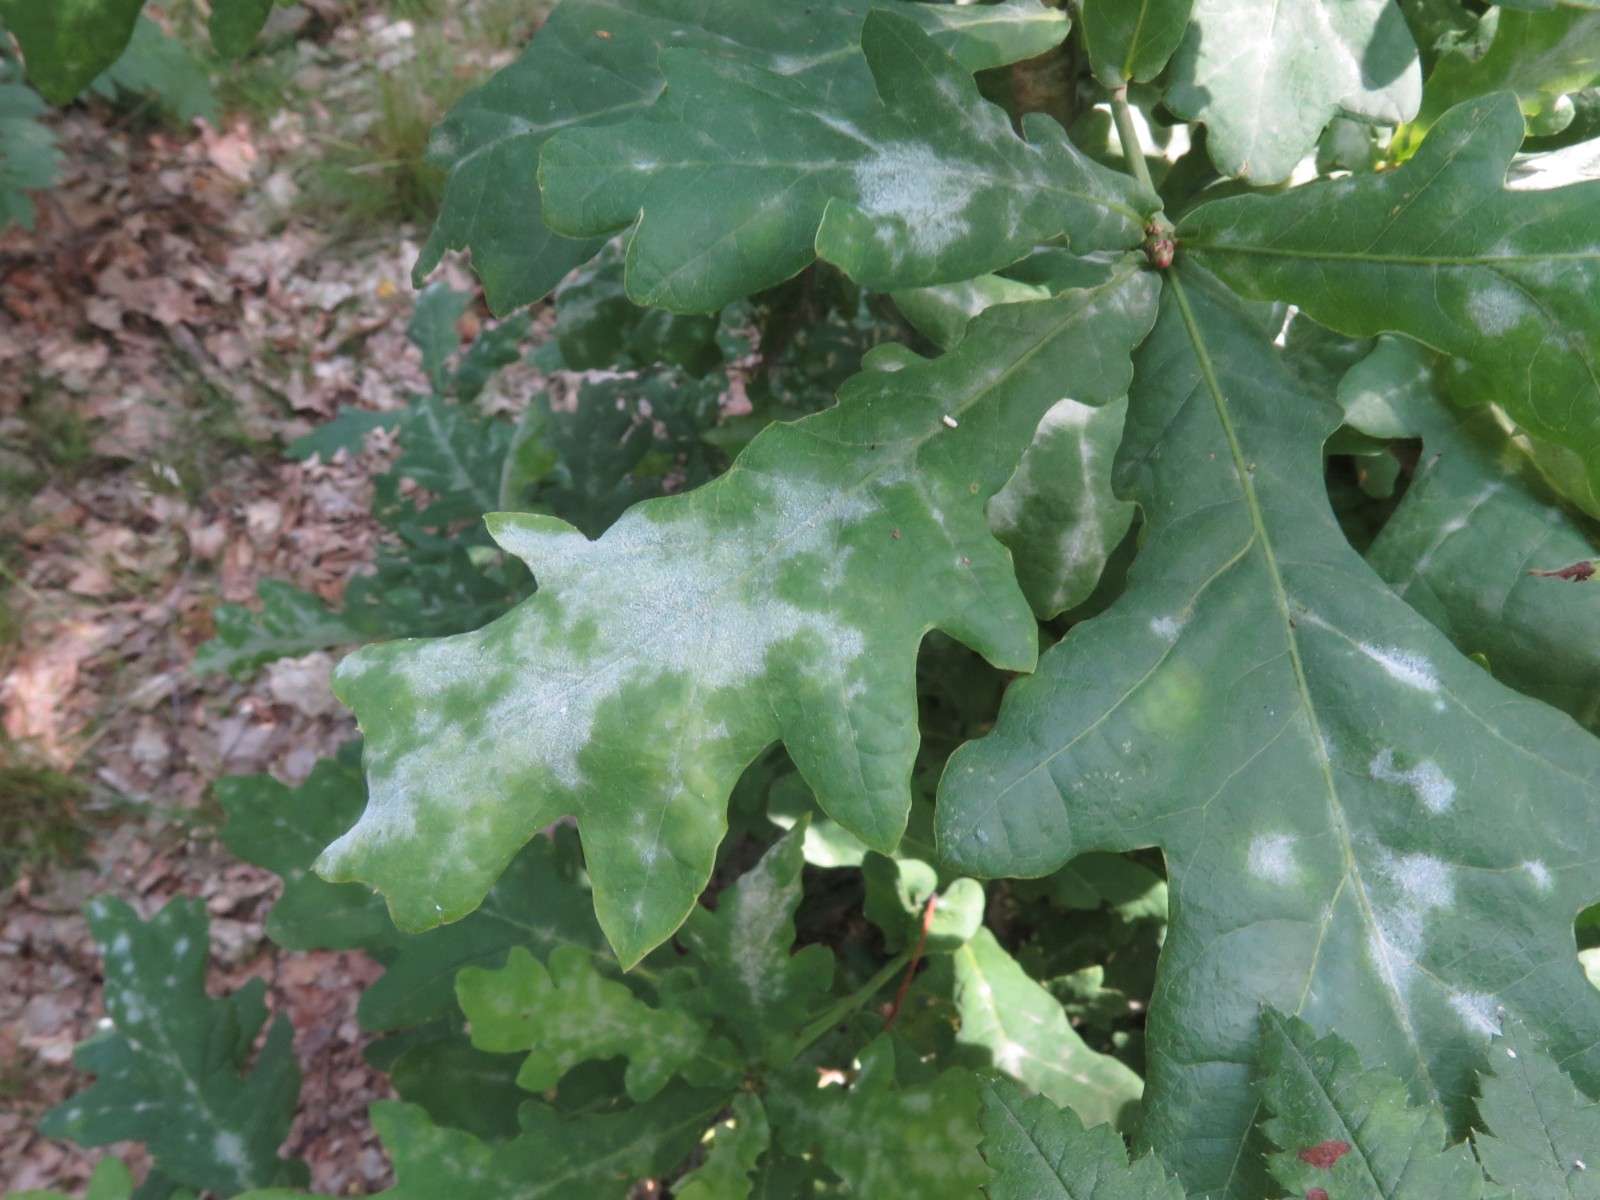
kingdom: Fungi
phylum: Ascomycota
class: Leotiomycetes
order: Helotiales
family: Erysiphaceae
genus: Erysiphe
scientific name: Erysiphe alphitoides
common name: ege-meldug
